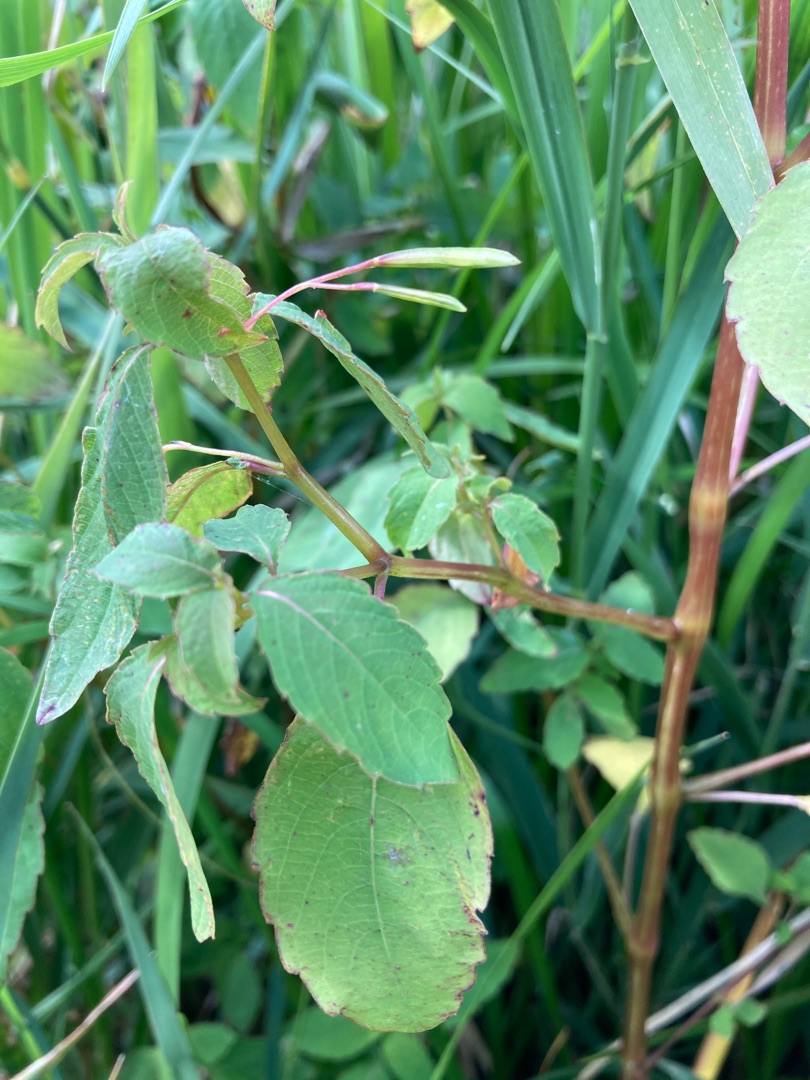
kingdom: Plantae
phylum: Tracheophyta
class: Magnoliopsida
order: Ericales
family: Balsaminaceae
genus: Impatiens
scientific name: Impatiens capensis
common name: Orange-balsamin
